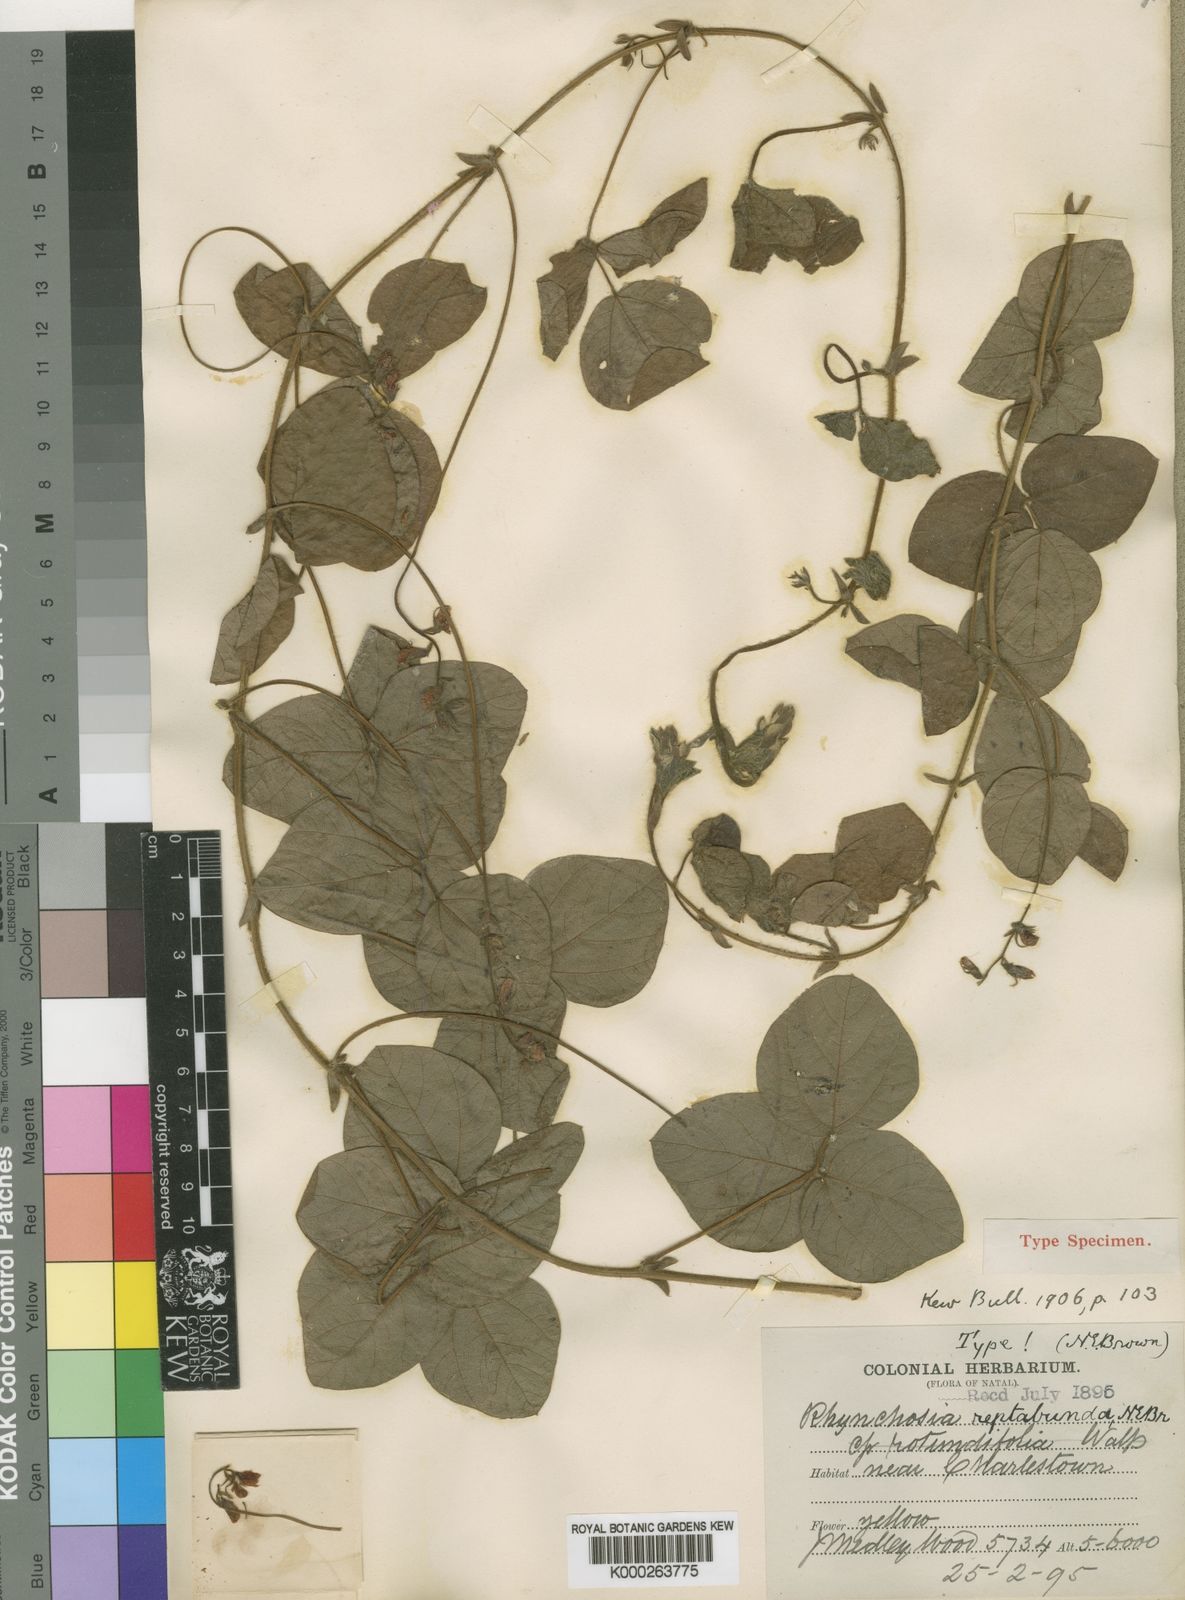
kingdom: Plantae
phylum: Tracheophyta
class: Magnoliopsida
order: Fabales
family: Fabaceae
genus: Rhynchosia
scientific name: Rhynchosia reptabunda
